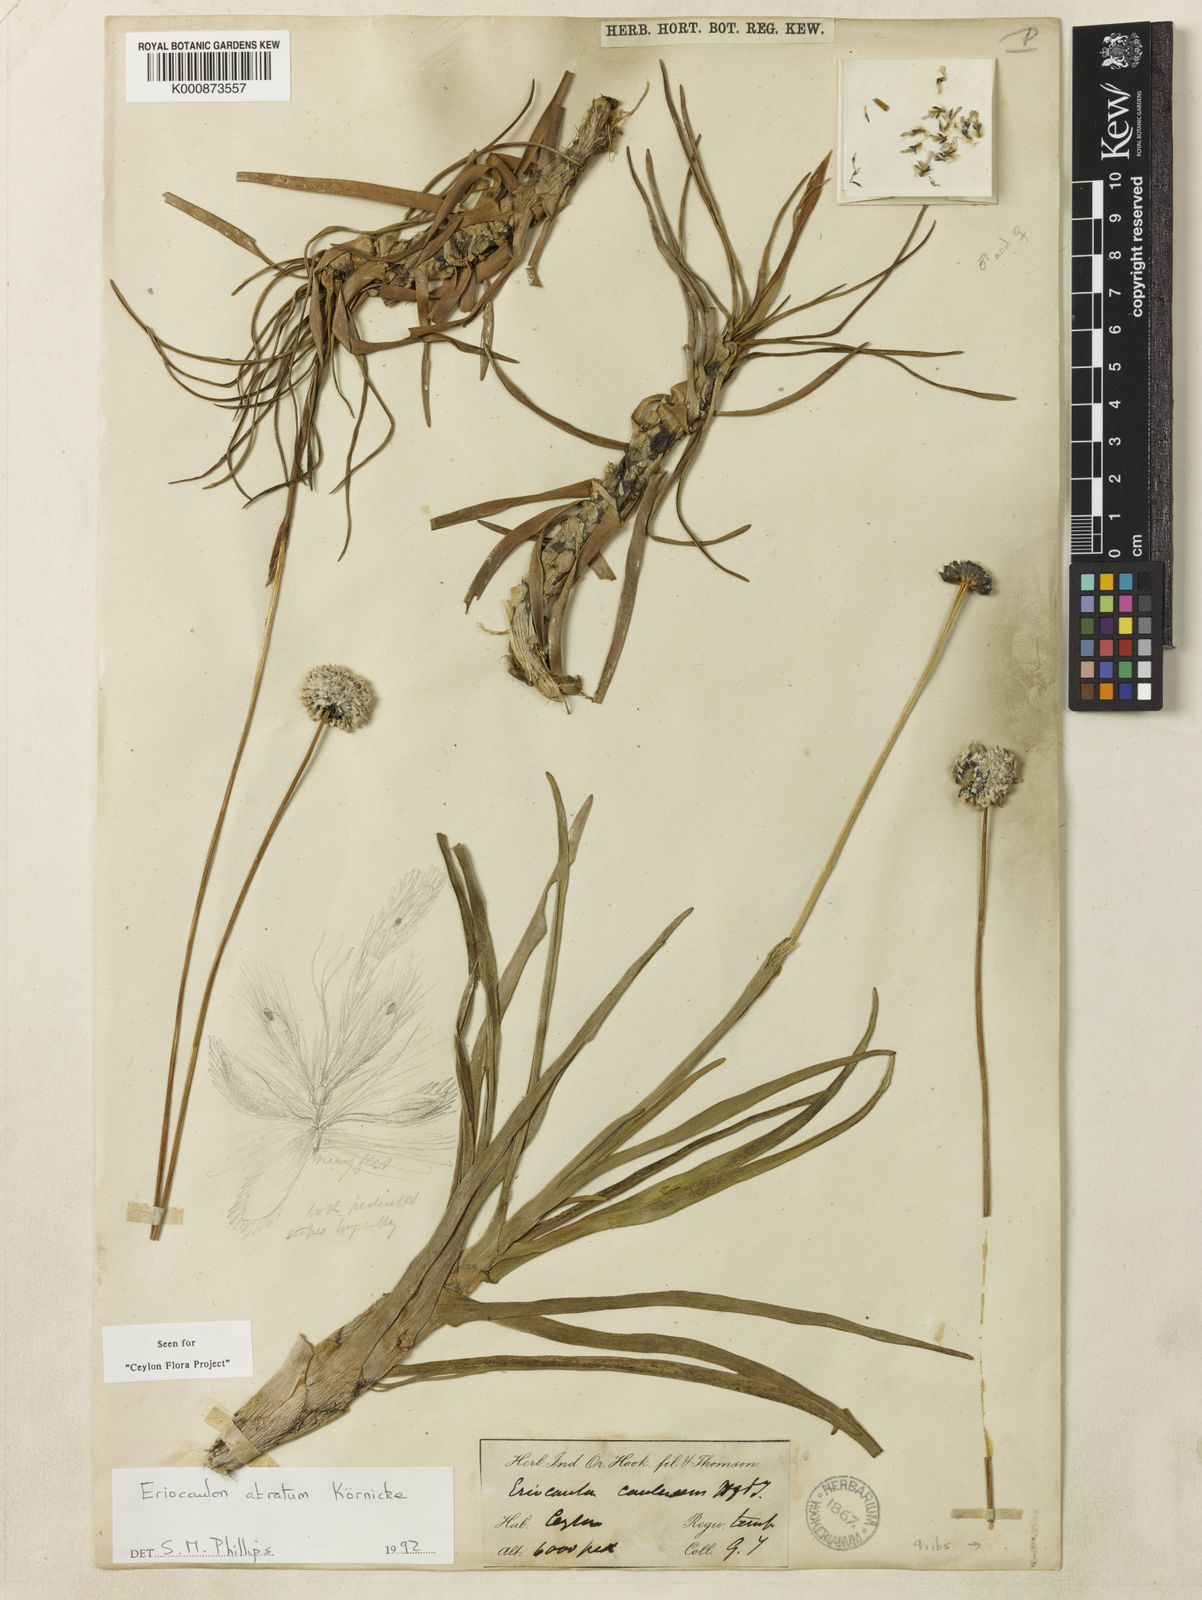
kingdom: Plantae
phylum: Tracheophyta
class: Liliopsida
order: Poales
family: Eriocaulaceae
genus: Eriocaulon
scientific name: Eriocaulon philippo-coburgii
